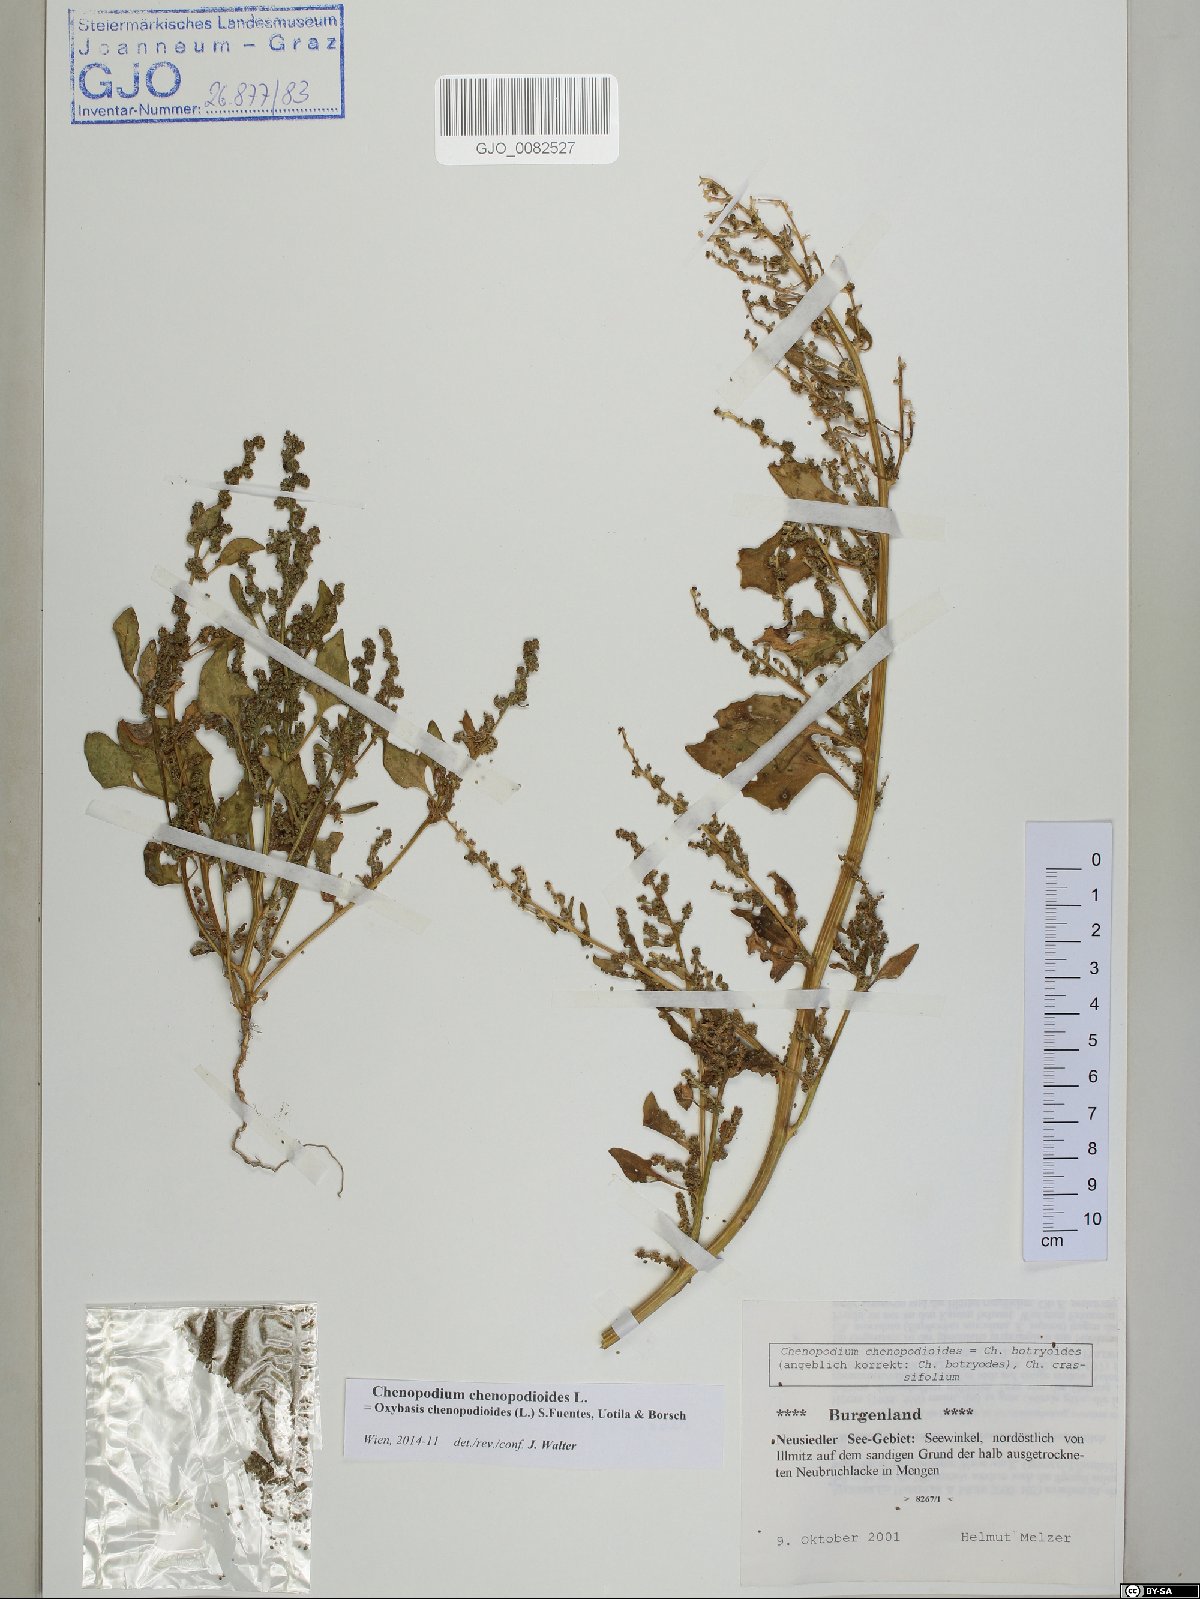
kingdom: Plantae
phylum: Tracheophyta
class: Magnoliopsida
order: Caryophyllales
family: Amaranthaceae
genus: Oxybasis
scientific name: Oxybasis chenopodioides
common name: Saltmarsh goosefoot
